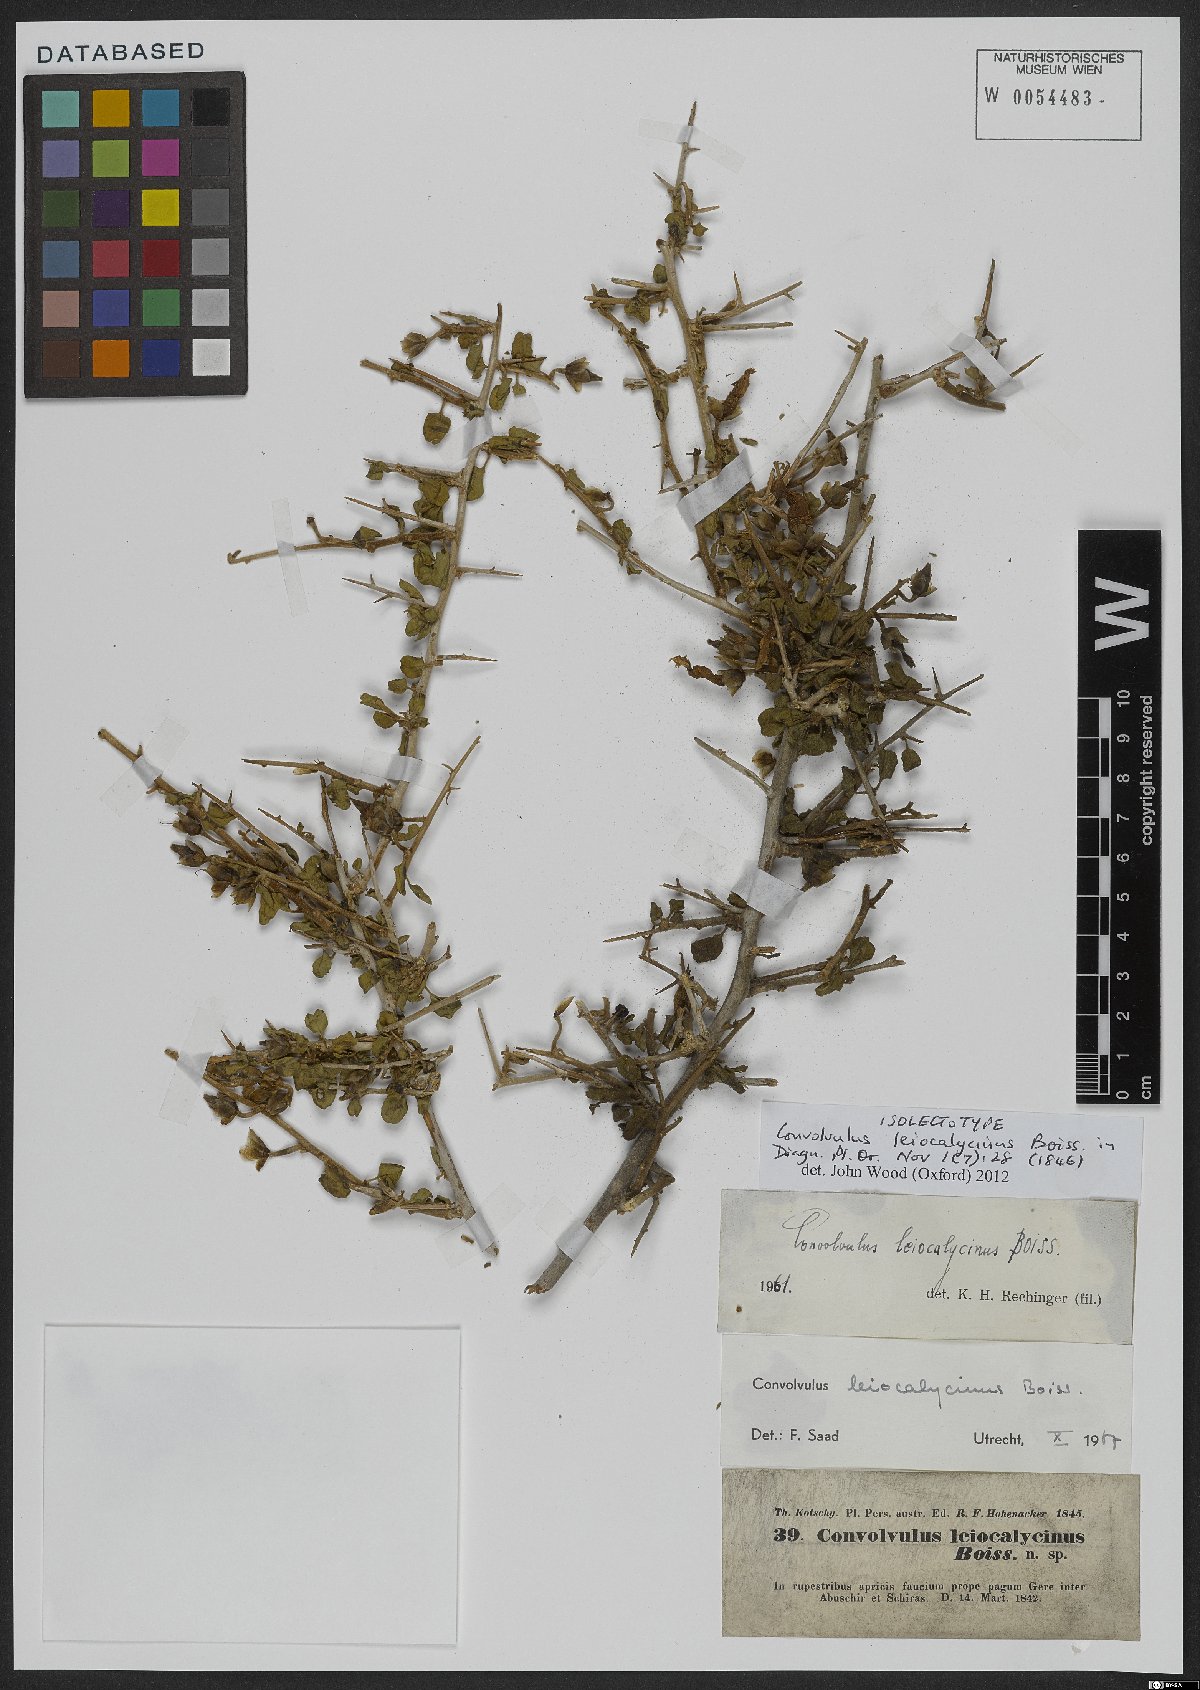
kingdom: Plantae
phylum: Tracheophyta
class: Magnoliopsida
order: Solanales
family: Convolvulaceae
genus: Convolvulus
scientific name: Convolvulus leiocalycinus
